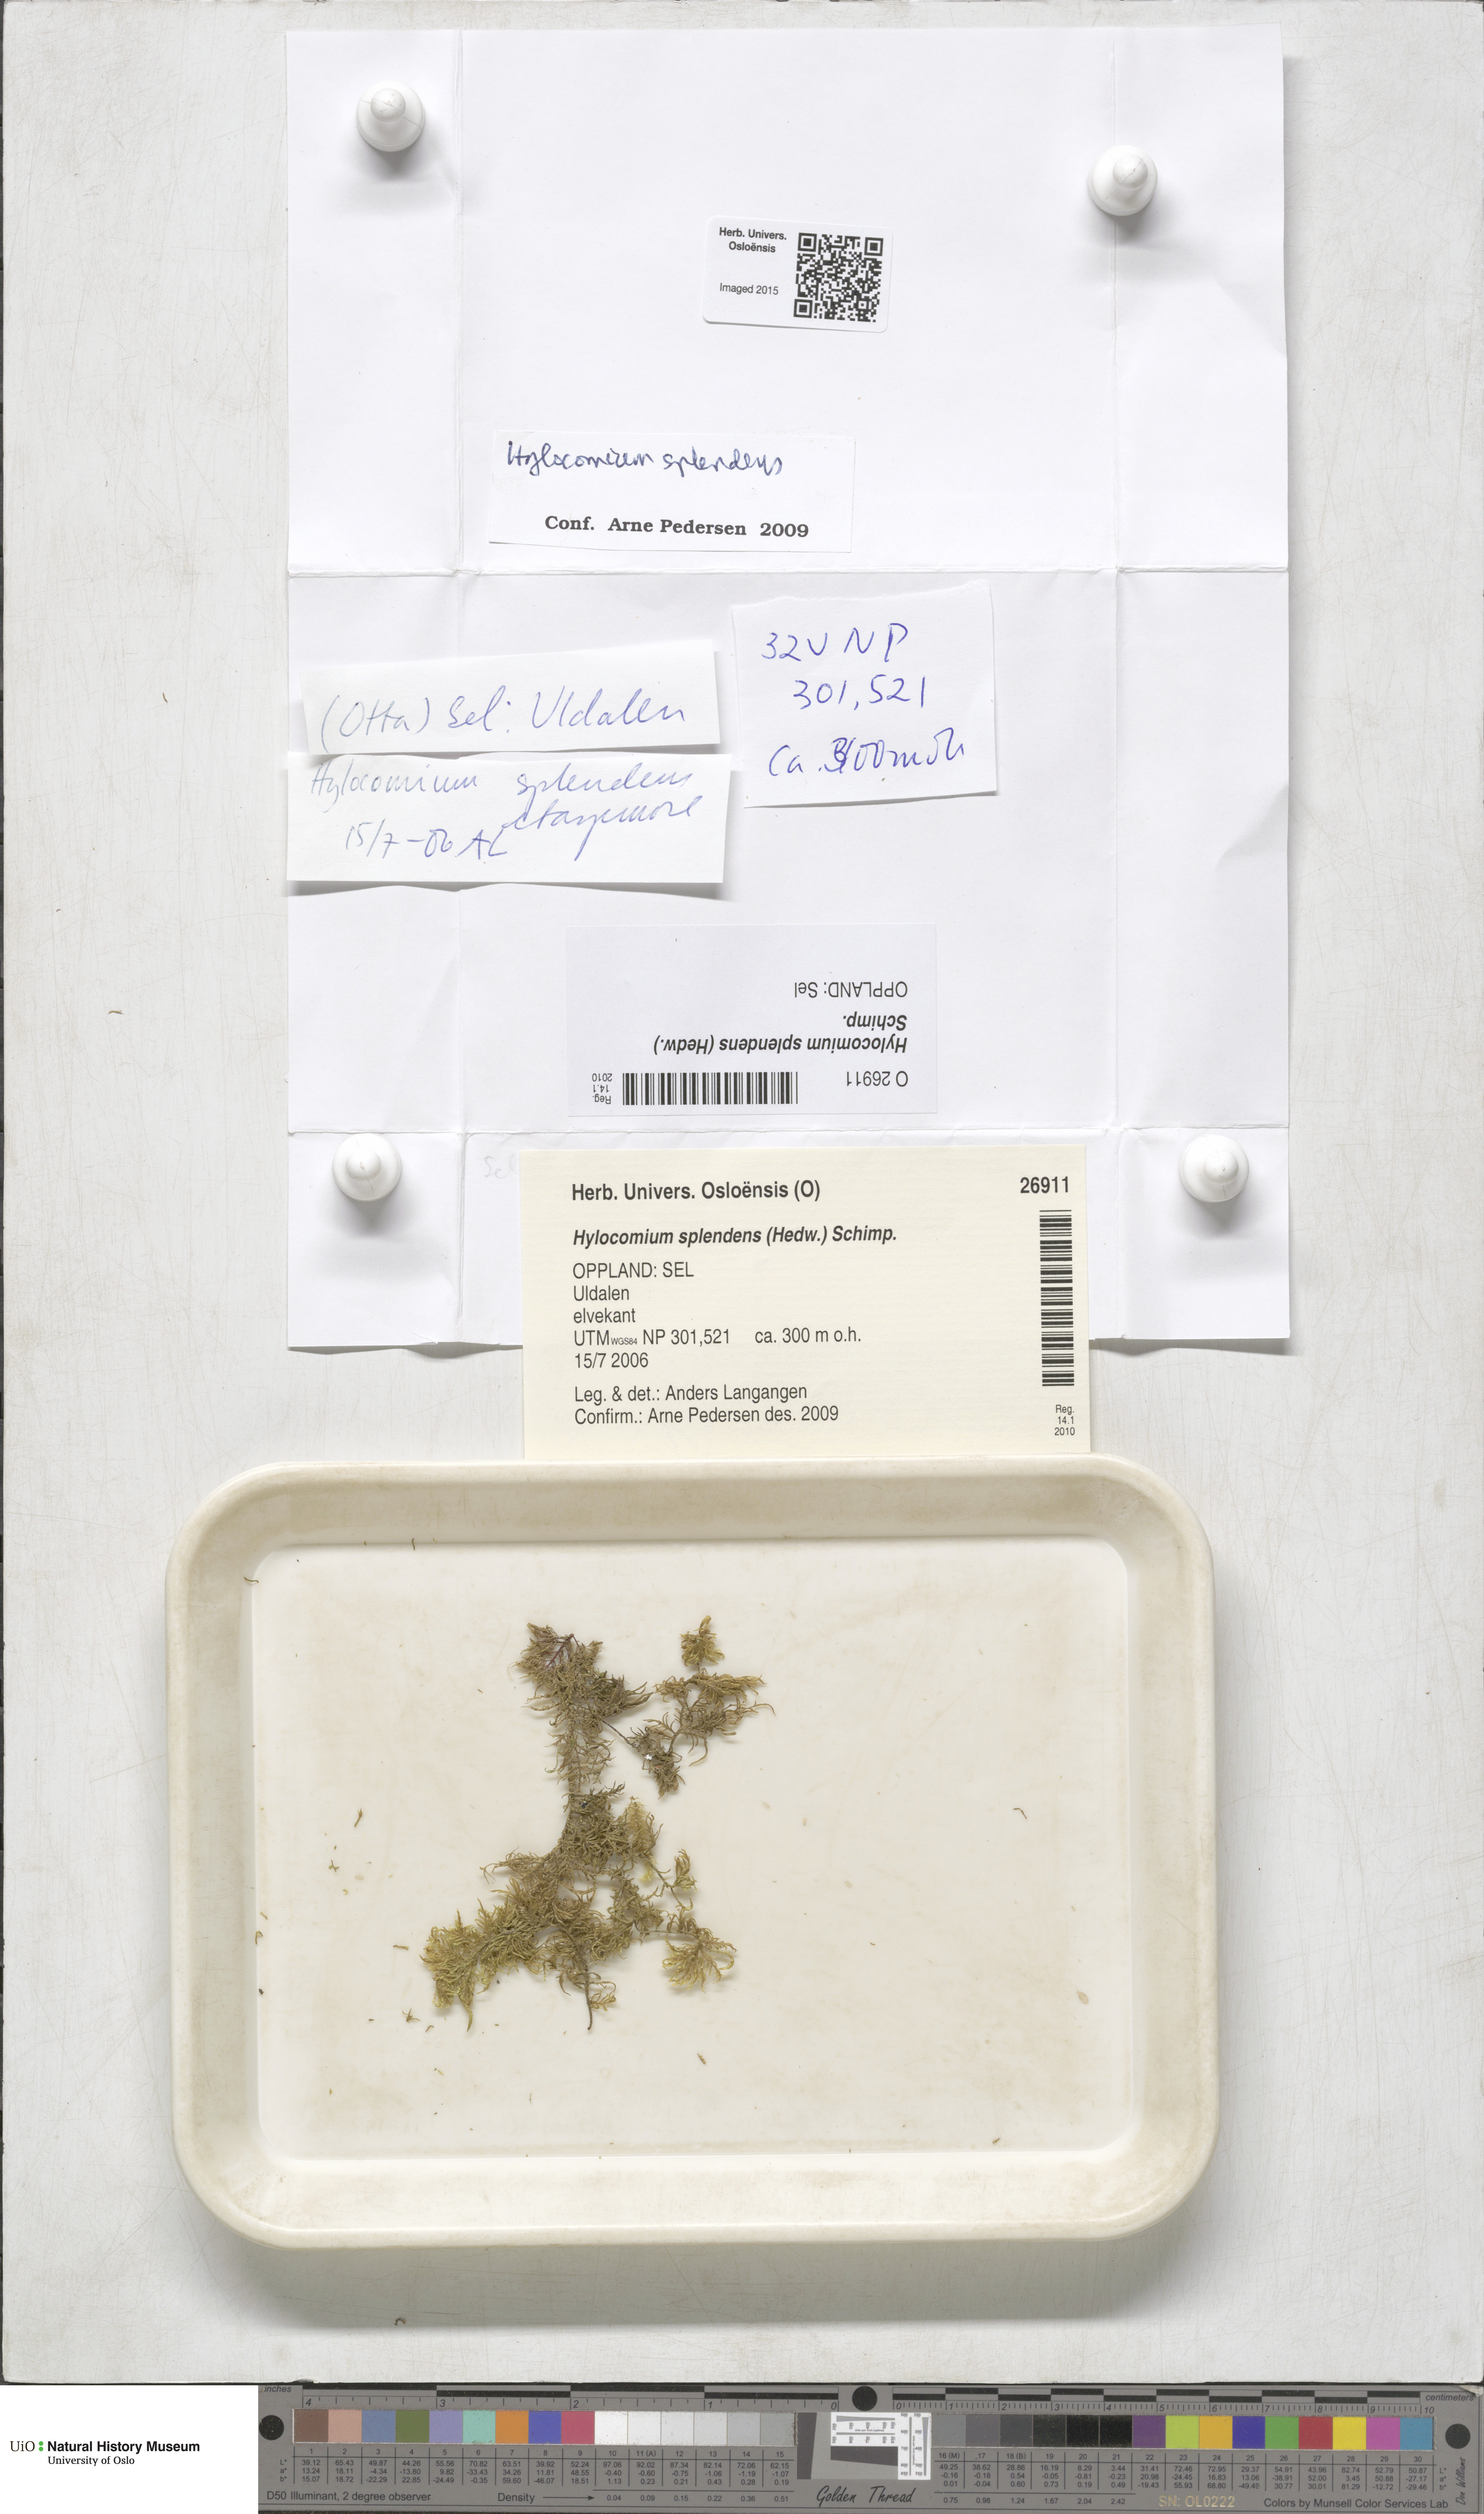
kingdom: Plantae
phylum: Bryophyta
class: Bryopsida
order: Hypnales
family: Hylocomiaceae
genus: Hylocomium
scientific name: Hylocomium splendens
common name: Stairstep moss
